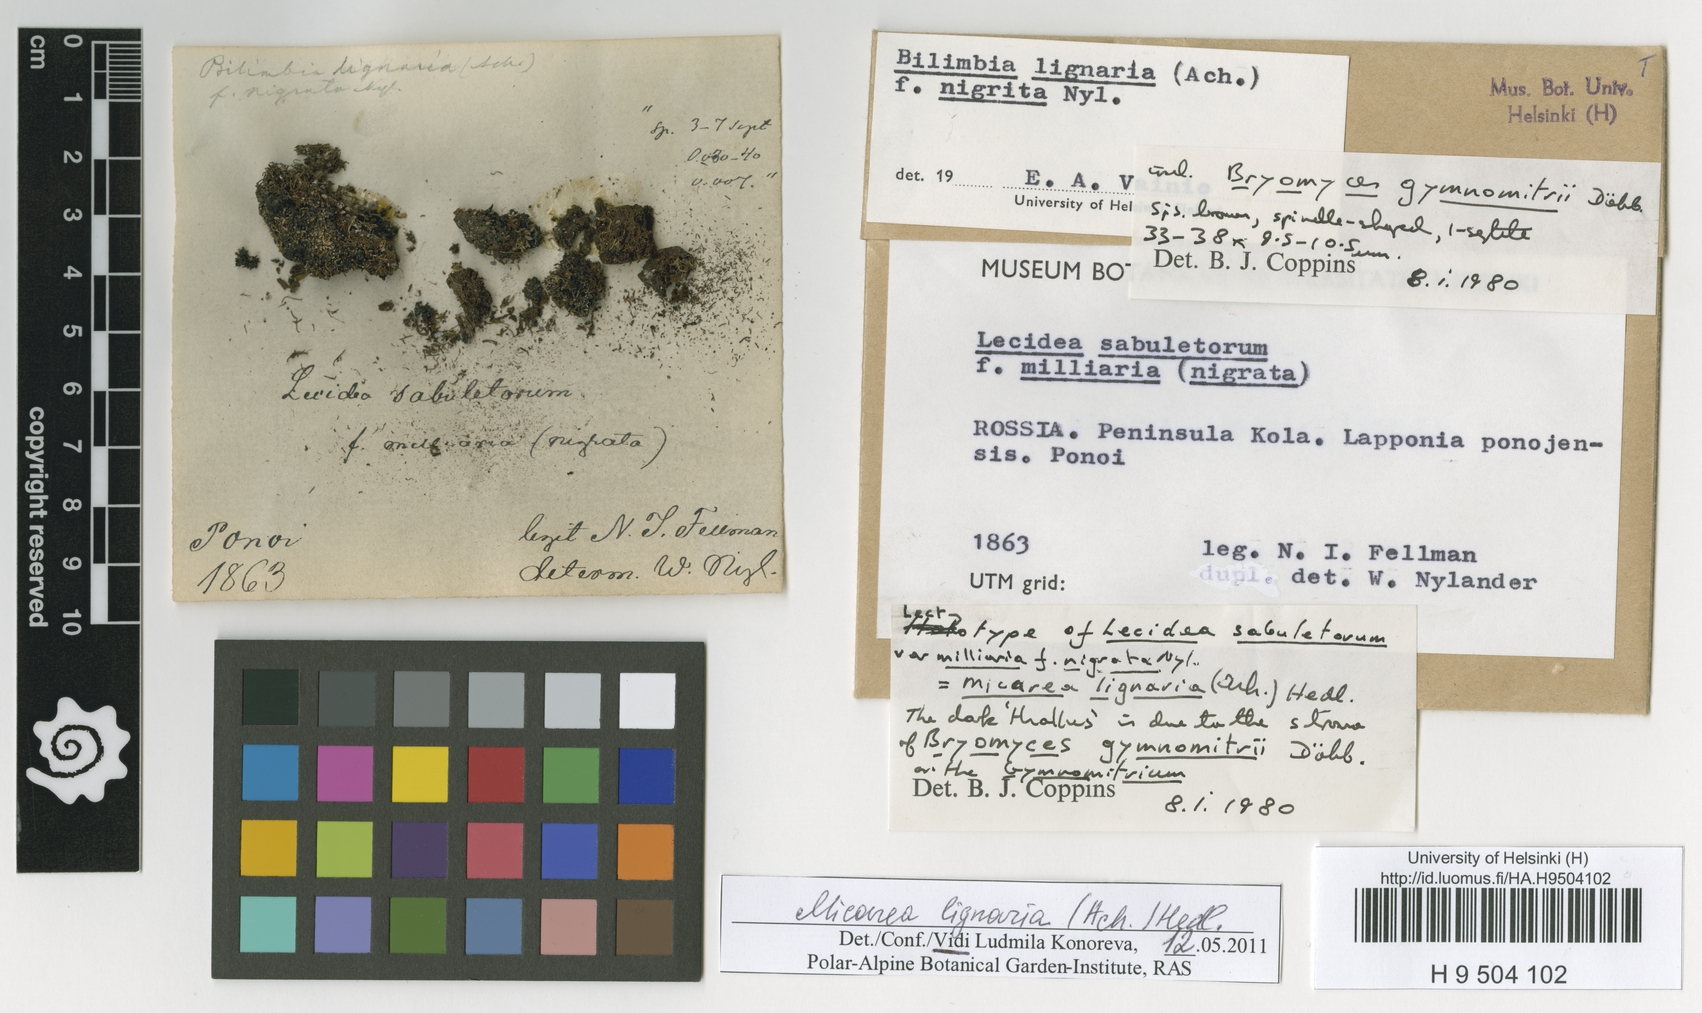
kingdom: Fungi
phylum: Ascomycota
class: Lecanoromycetes
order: Lecanorales
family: Byssolomataceae
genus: Micarea
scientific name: Micarea lignaria
